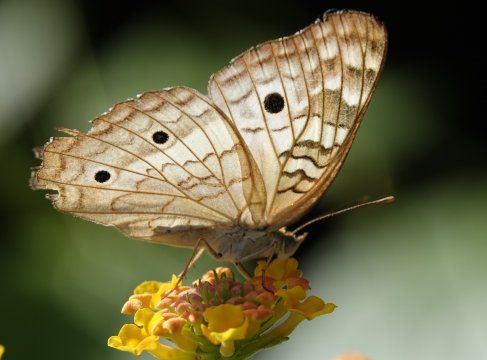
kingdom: Animalia
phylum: Arthropoda
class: Insecta
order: Lepidoptera
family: Nymphalidae
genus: Anartia
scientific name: Anartia jatrophae
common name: White Peacock
